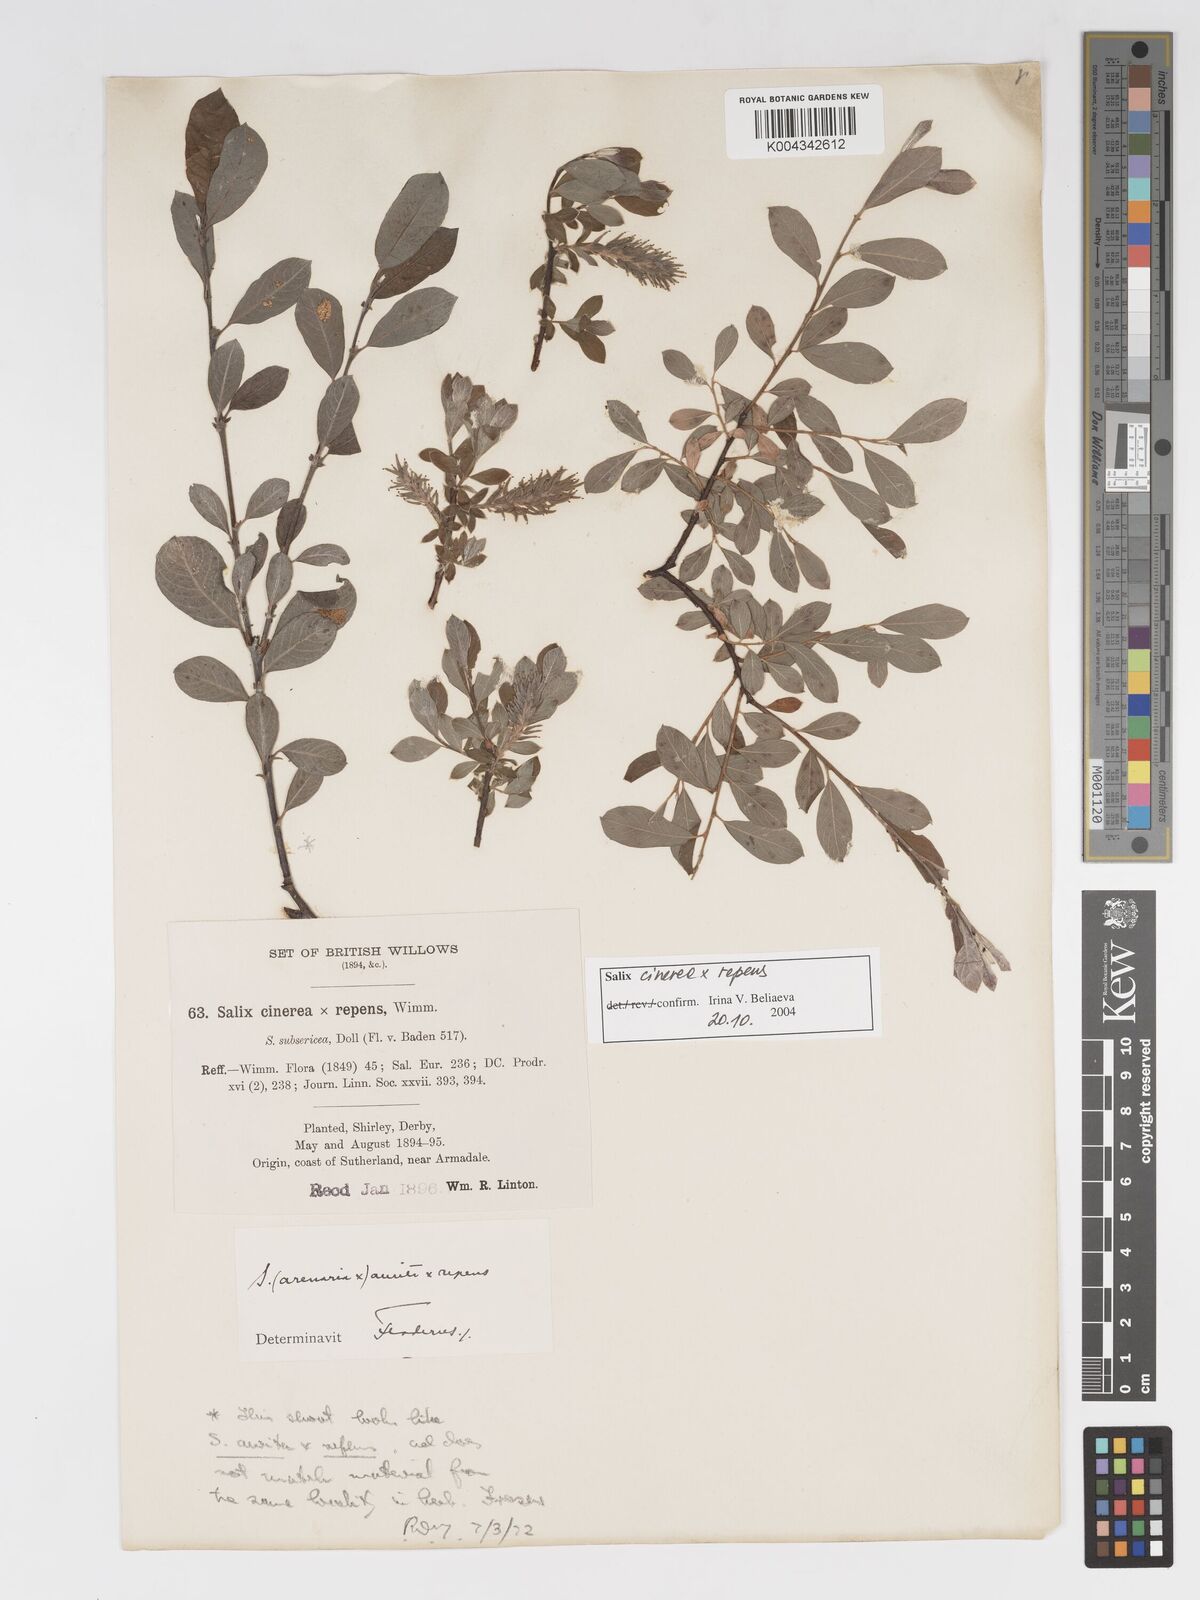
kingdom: Plantae
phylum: Tracheophyta
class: Magnoliopsida
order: Malpighiales
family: Salicaceae
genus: Salix
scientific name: Salix cinerea
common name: Common sallow
